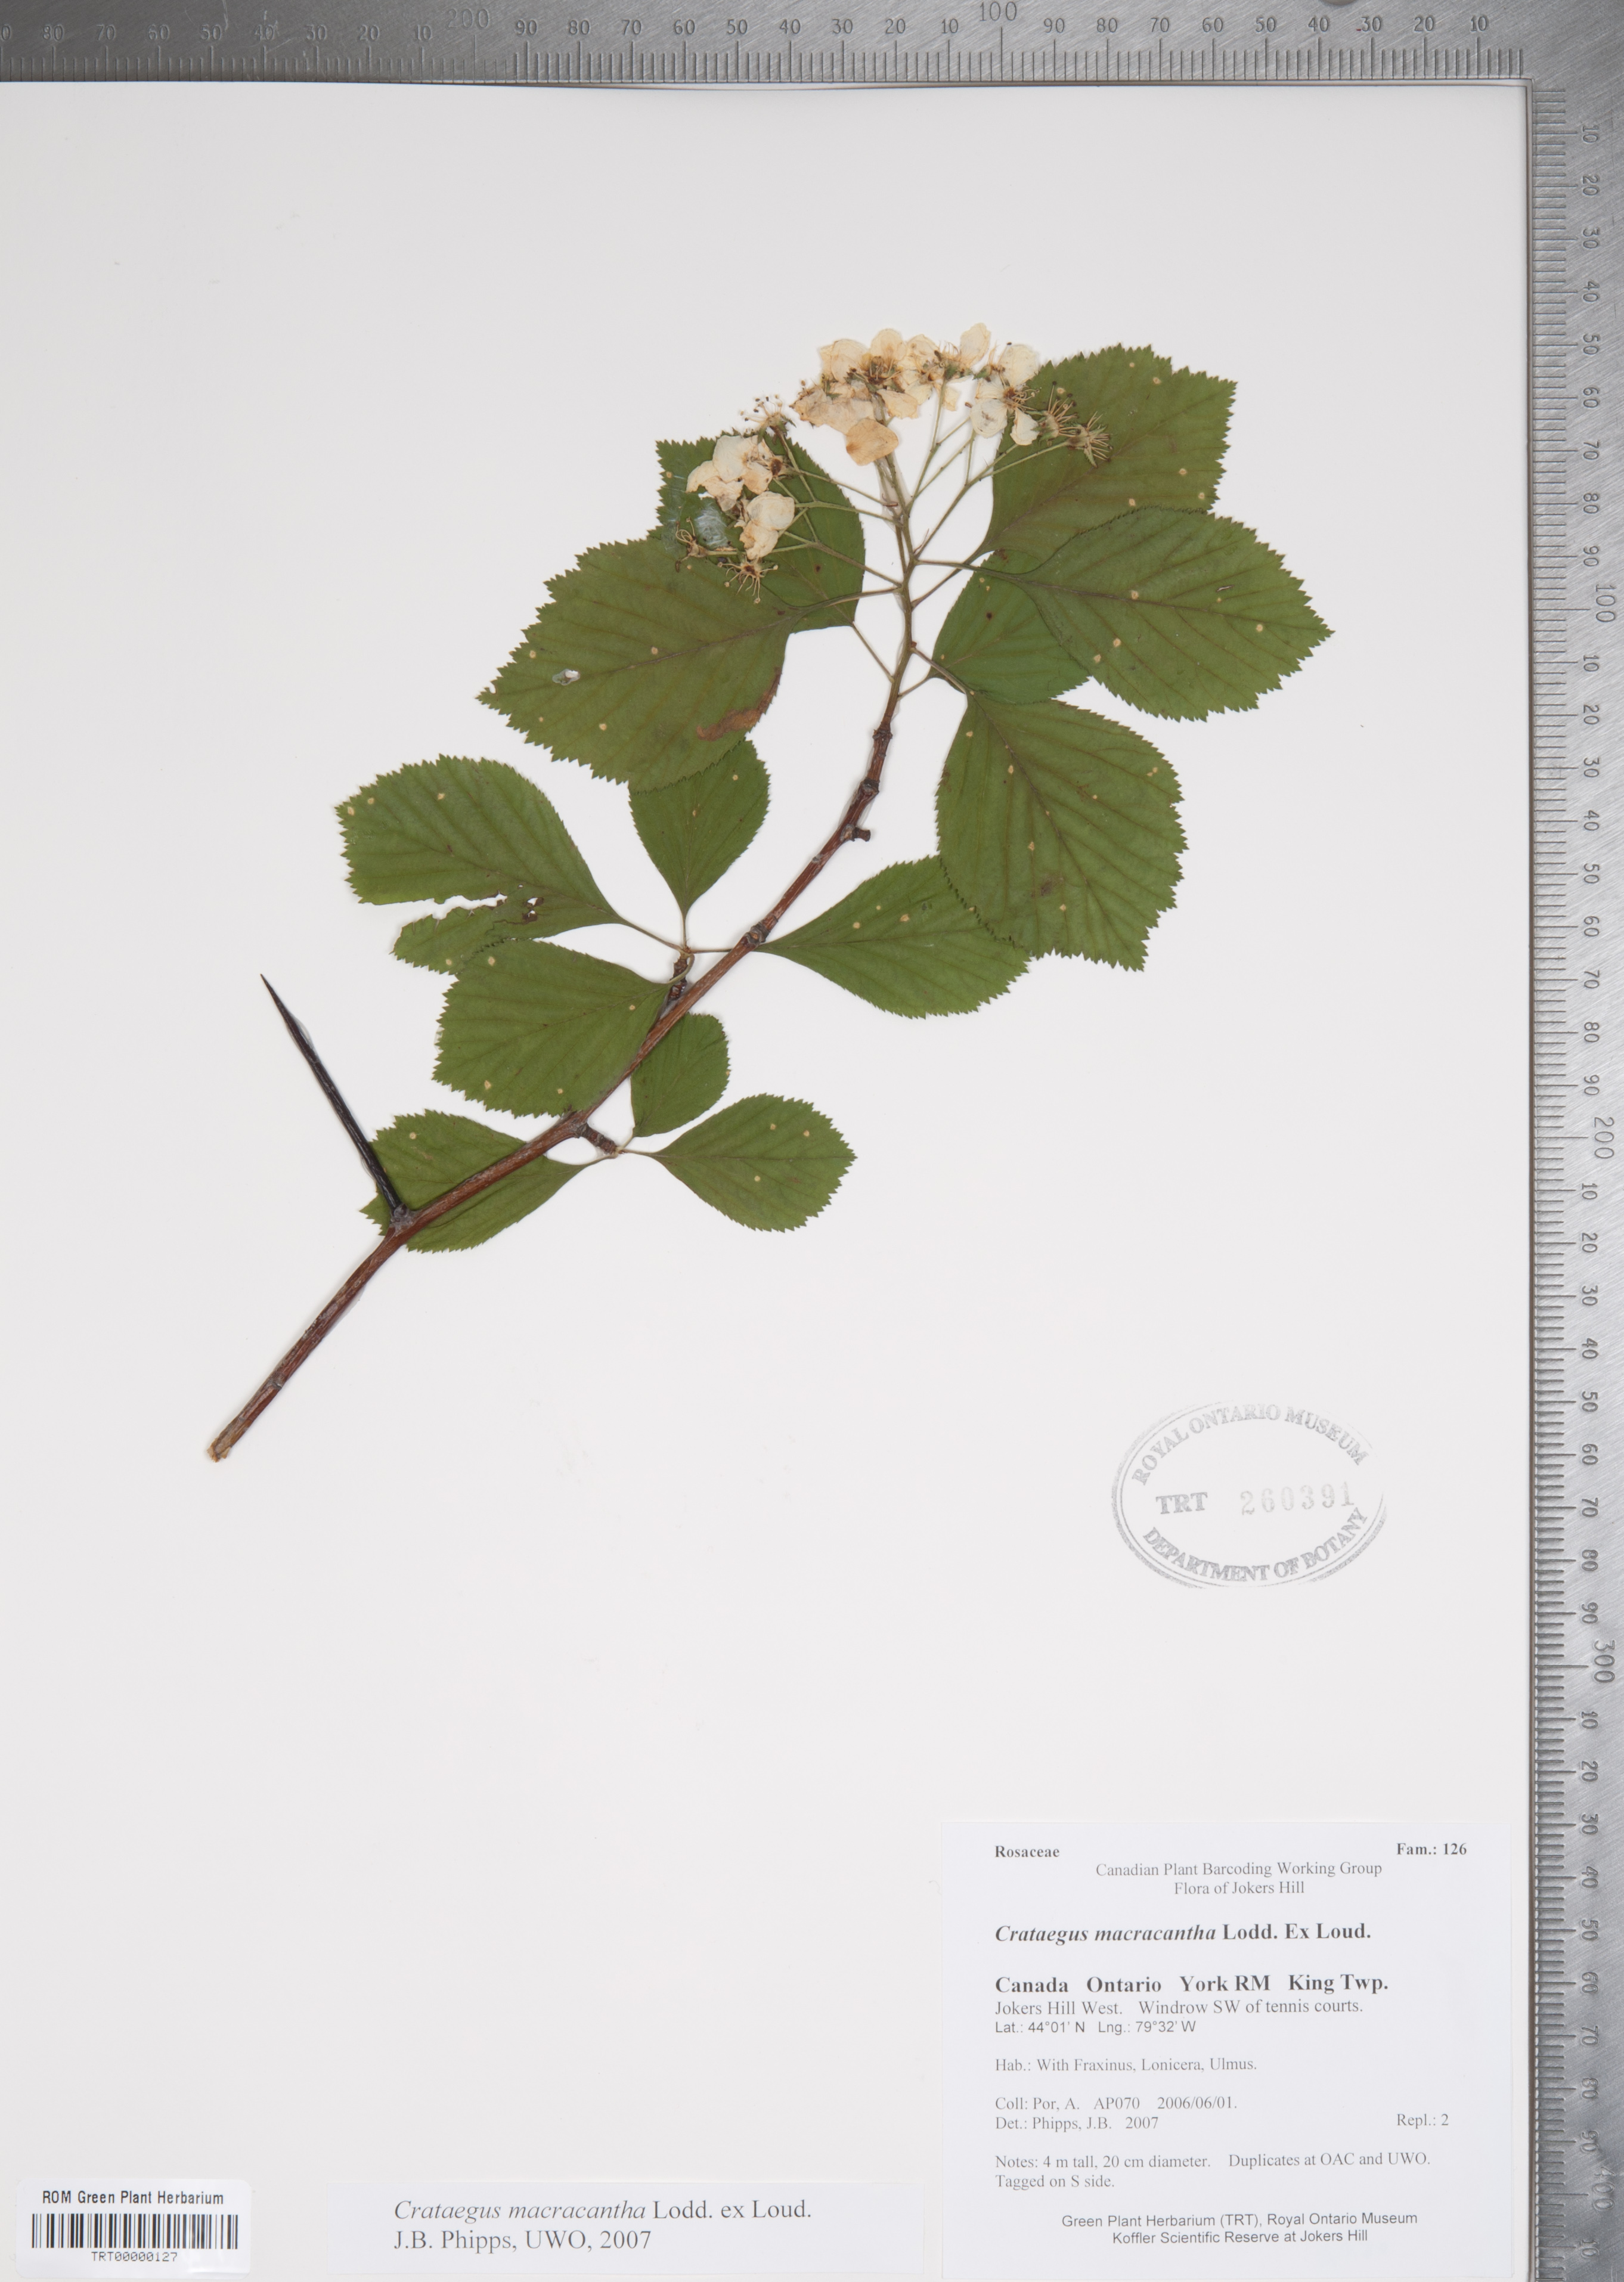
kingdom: Plantae
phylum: Tracheophyta
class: Magnoliopsida
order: Rosales
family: Rosaceae
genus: Crataegus
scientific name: Crataegus macracantha
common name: Large-thorn hawthorn
